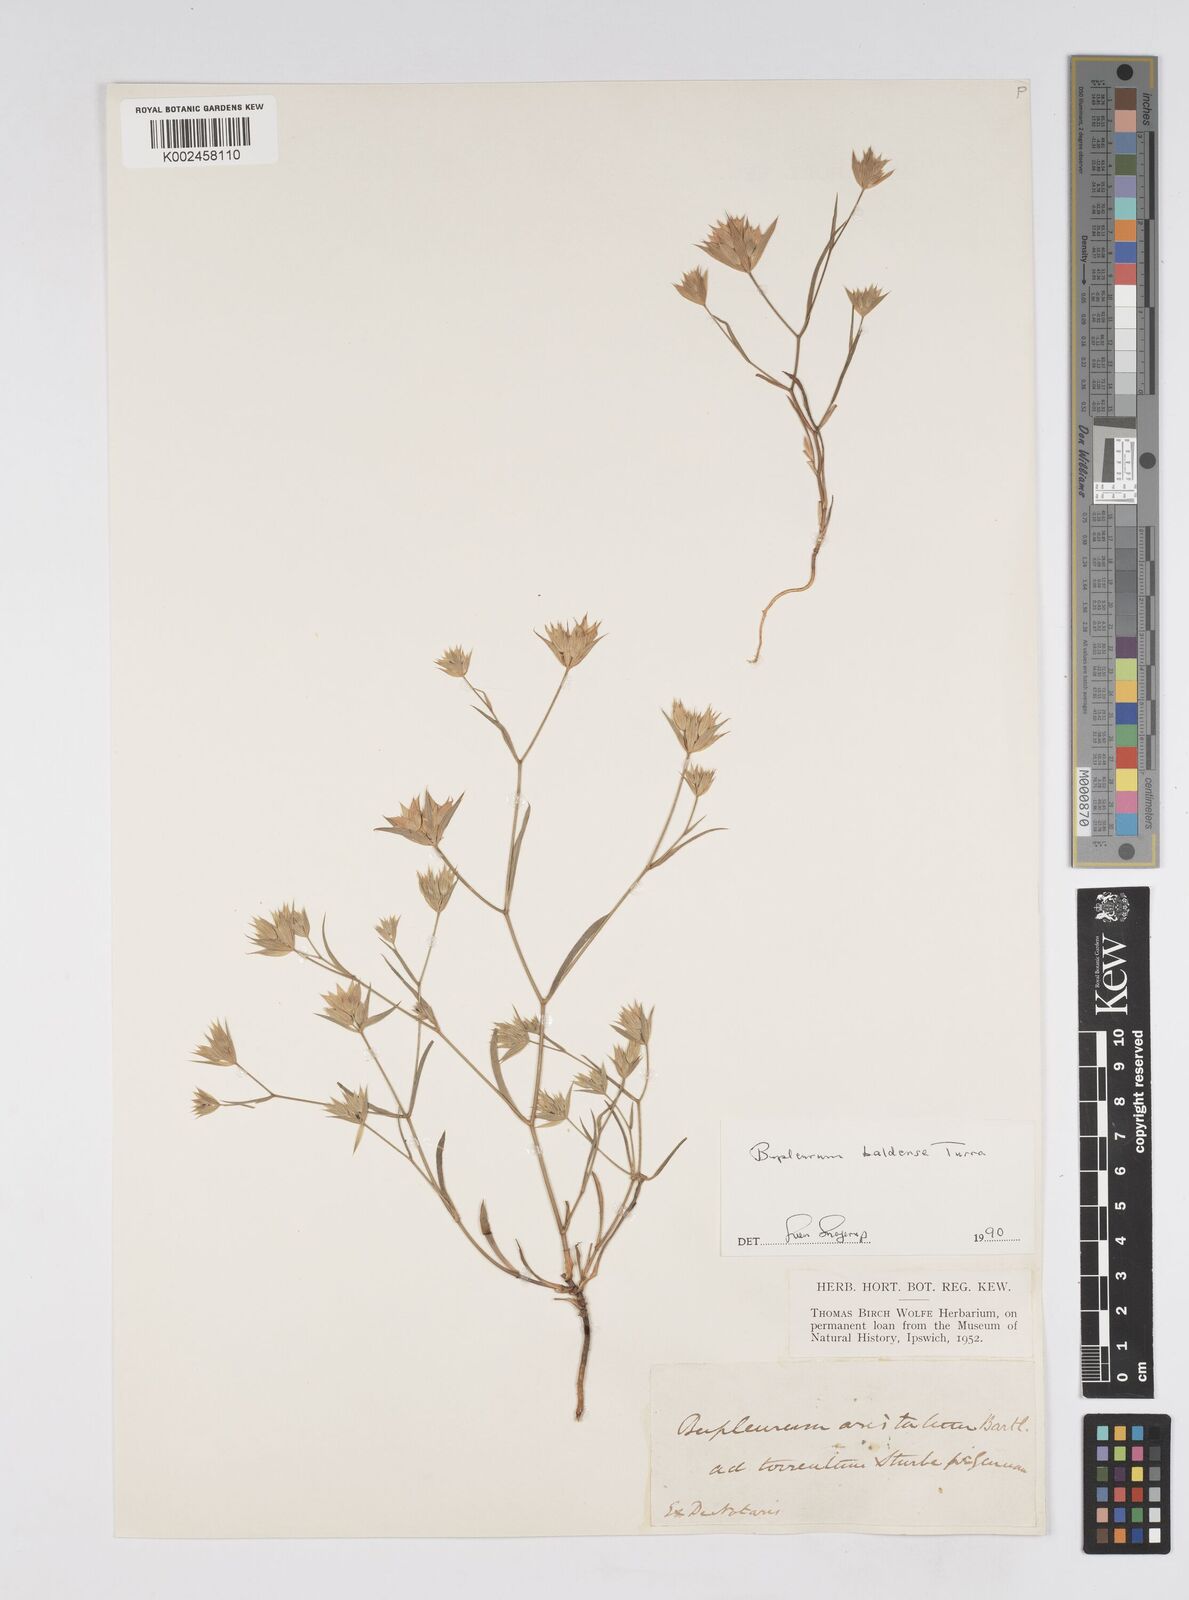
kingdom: Plantae
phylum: Tracheophyta
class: Magnoliopsida
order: Apiales
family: Apiaceae
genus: Bupleurum
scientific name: Bupleurum baldense
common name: Small hare's-ear
